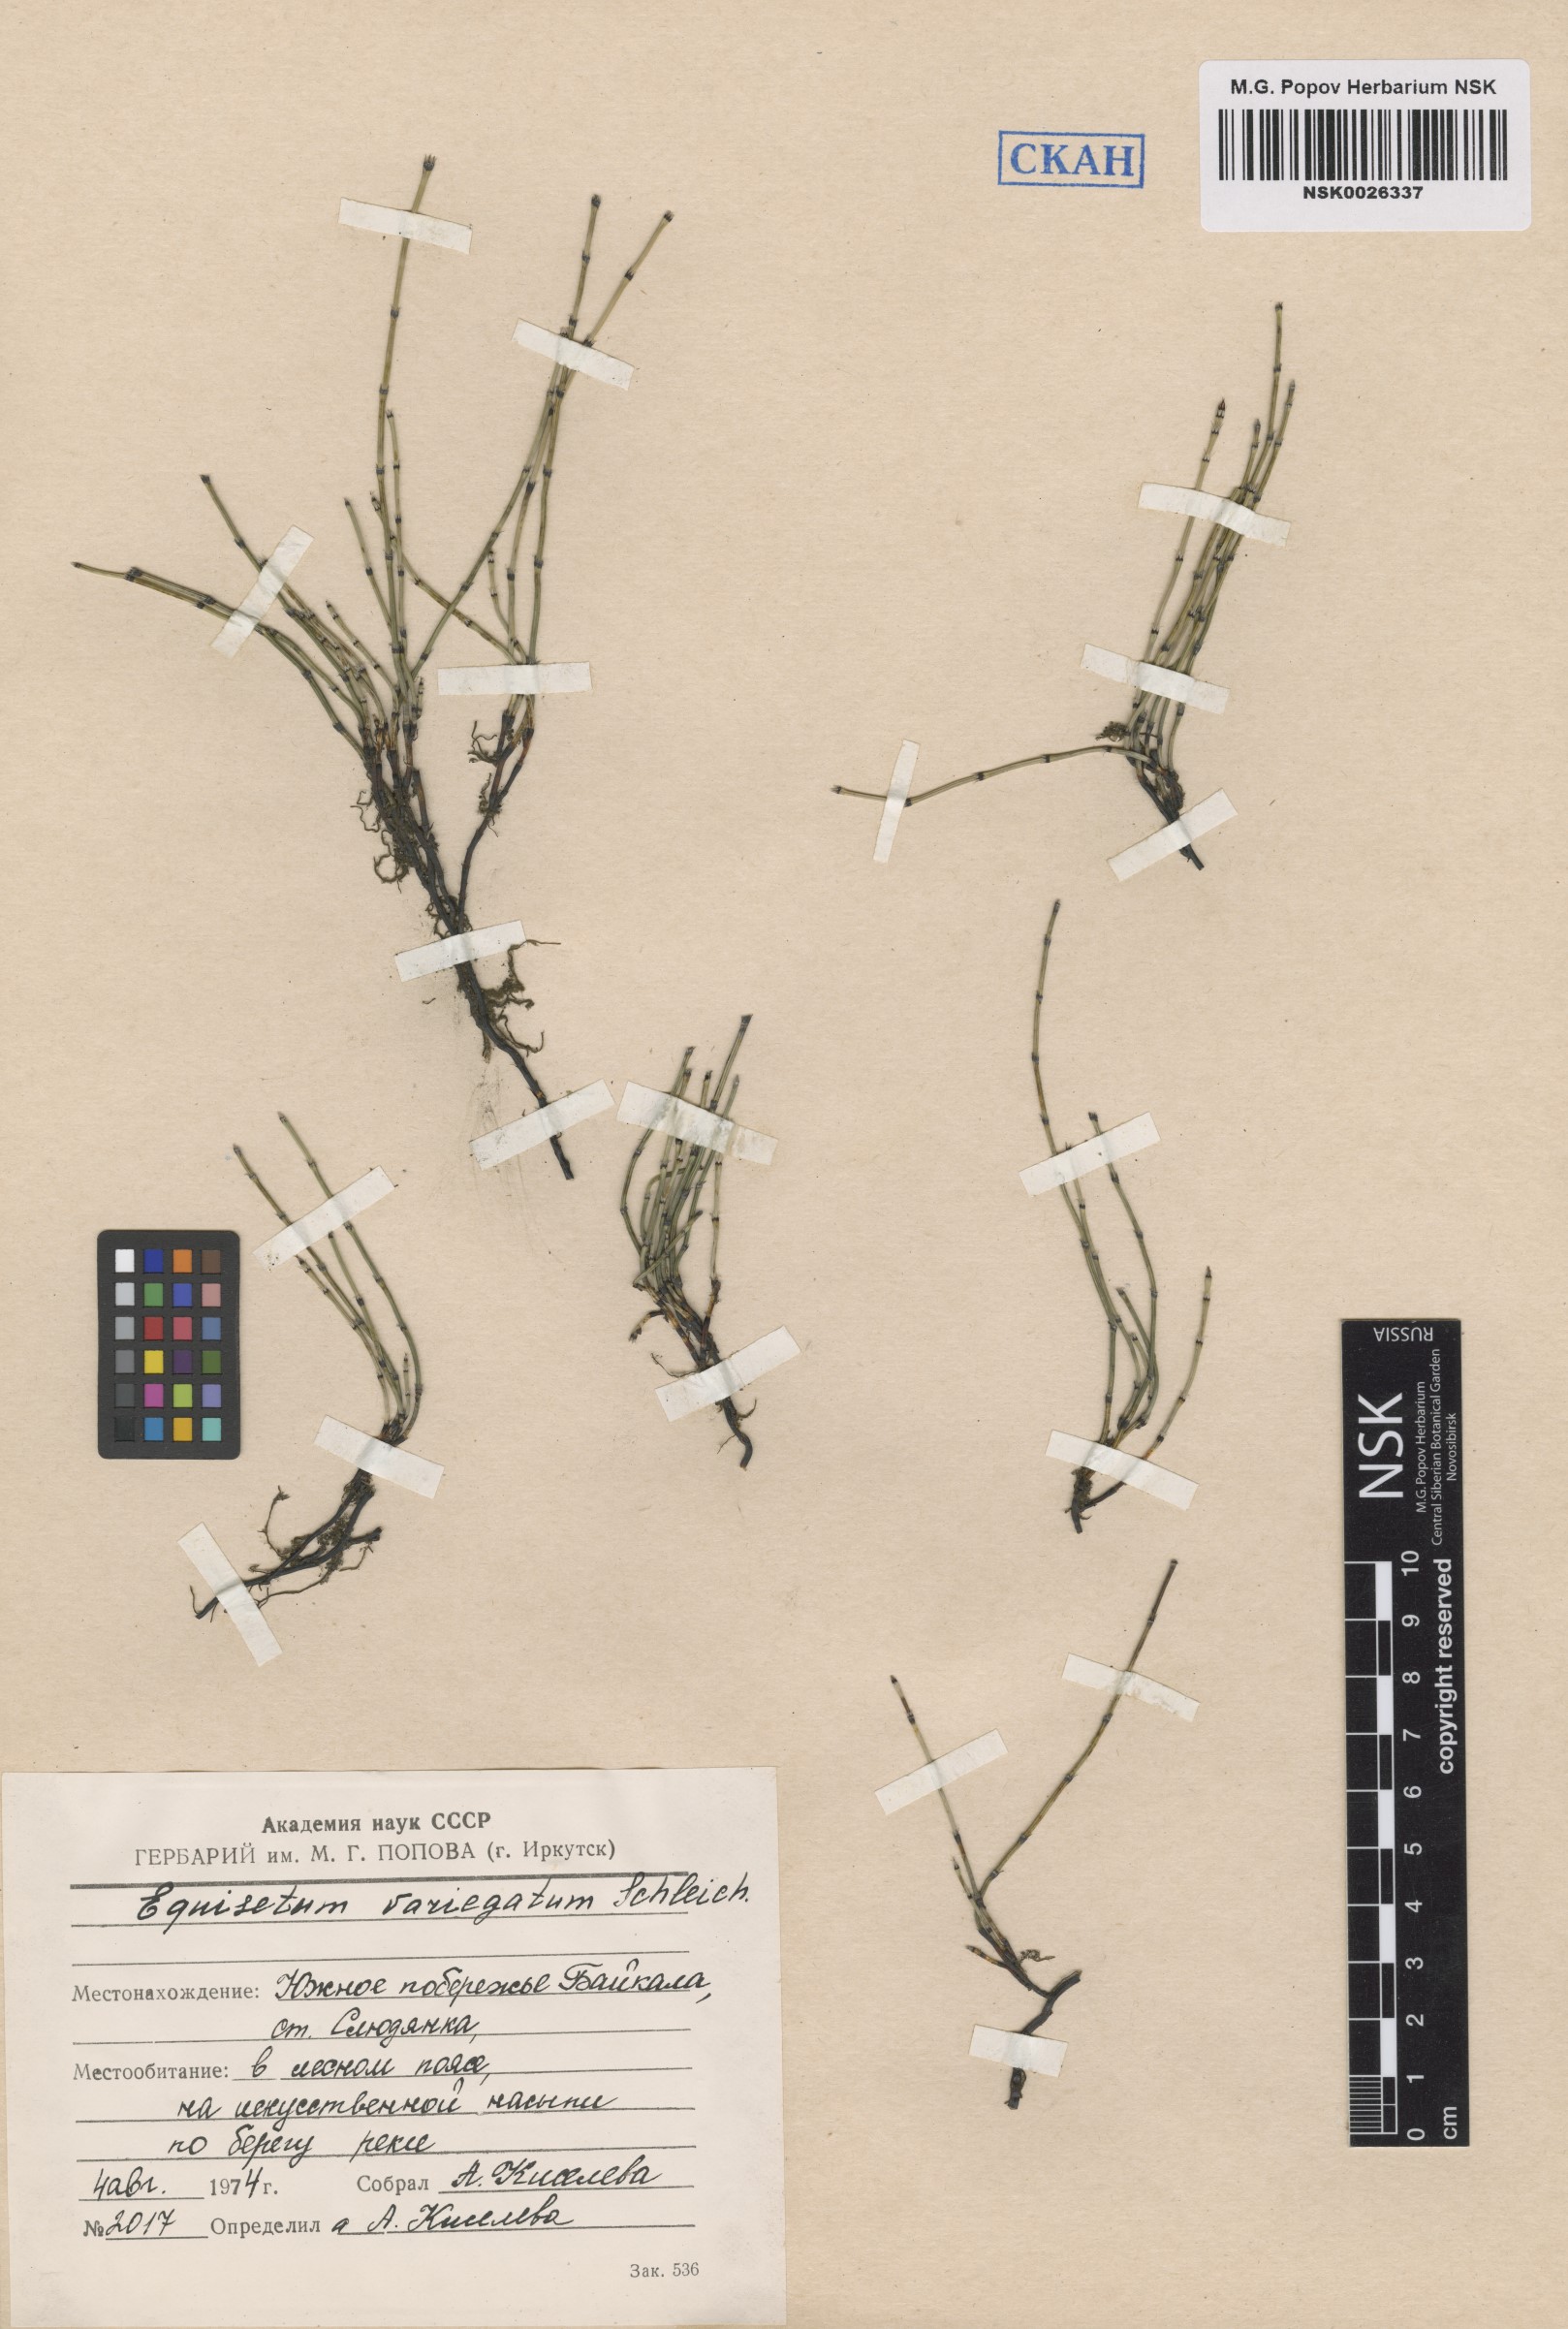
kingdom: Plantae
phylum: Tracheophyta
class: Polypodiopsida
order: Equisetales
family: Equisetaceae
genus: Equisetum
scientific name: Equisetum variegatum
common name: Variegated horsetail
